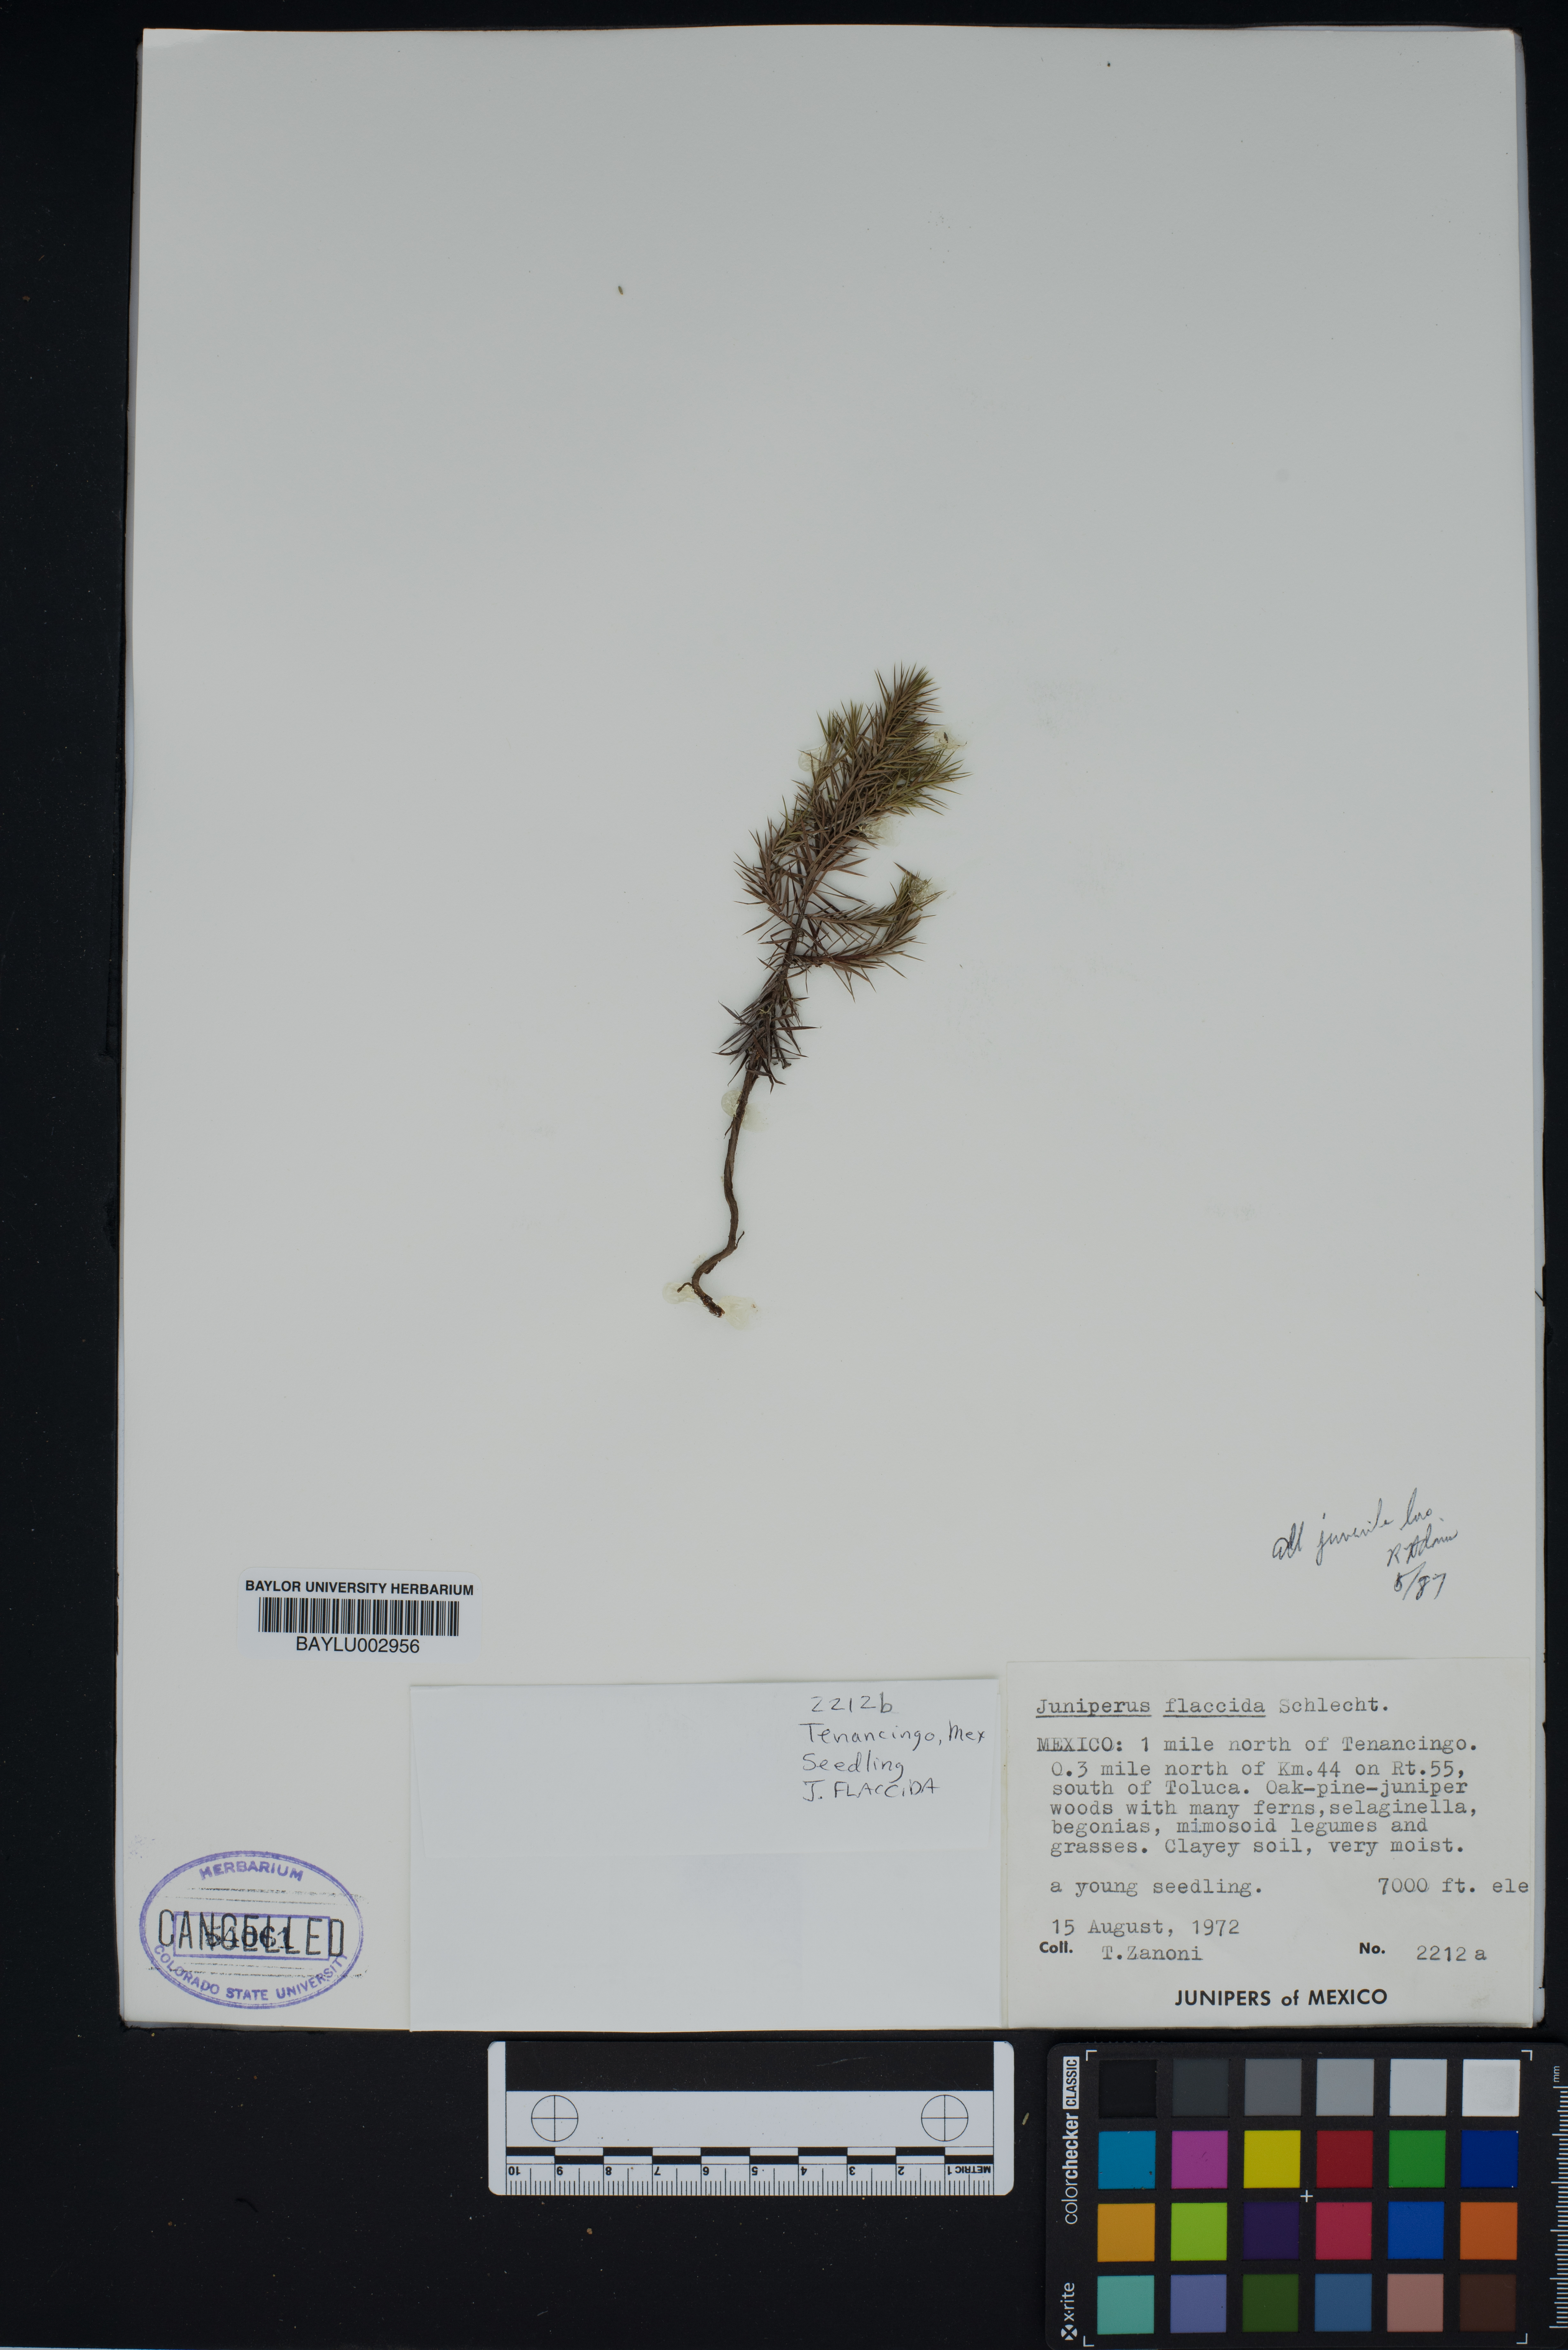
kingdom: Plantae
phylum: Tracheophyta
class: Pinopsida
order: Pinales
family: Cupressaceae
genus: Juniperus
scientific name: Juniperus flaccida
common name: Drooping juniper
